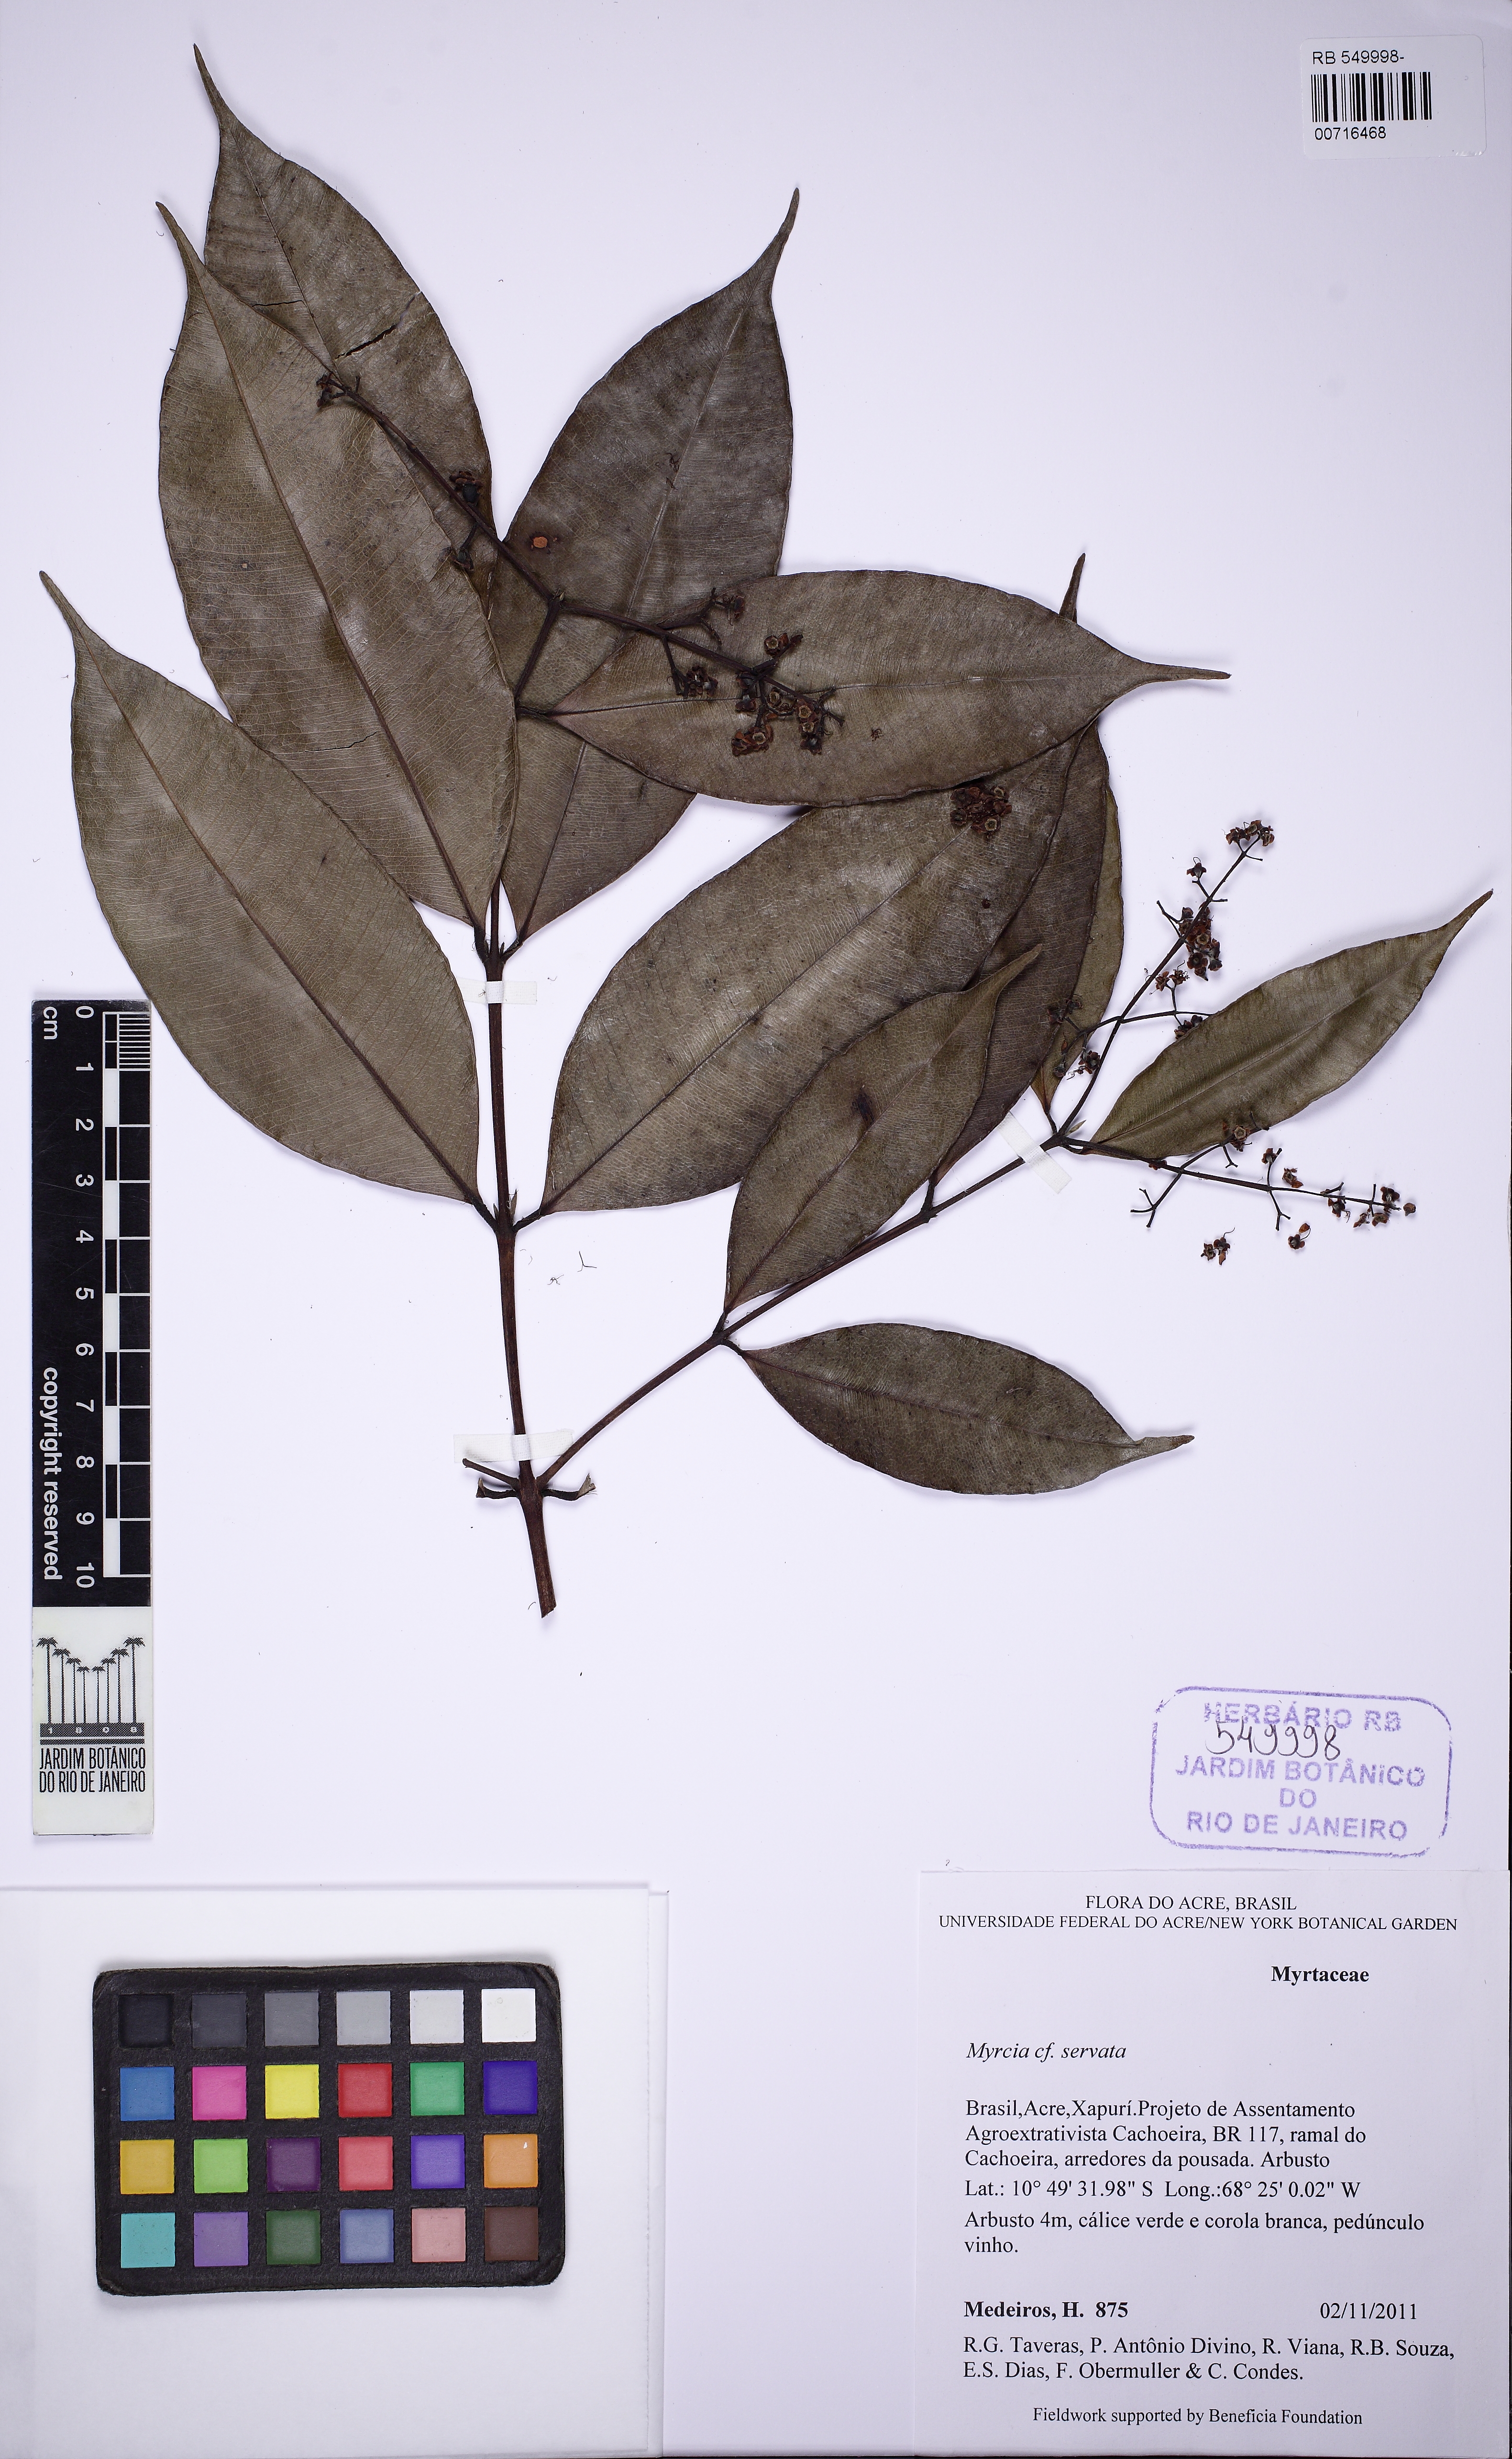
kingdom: Plantae
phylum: Tracheophyta
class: Magnoliopsida
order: Myrtales
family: Myrtaceae
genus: Myrcia
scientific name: Myrcia splendens
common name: Surinam cherry
